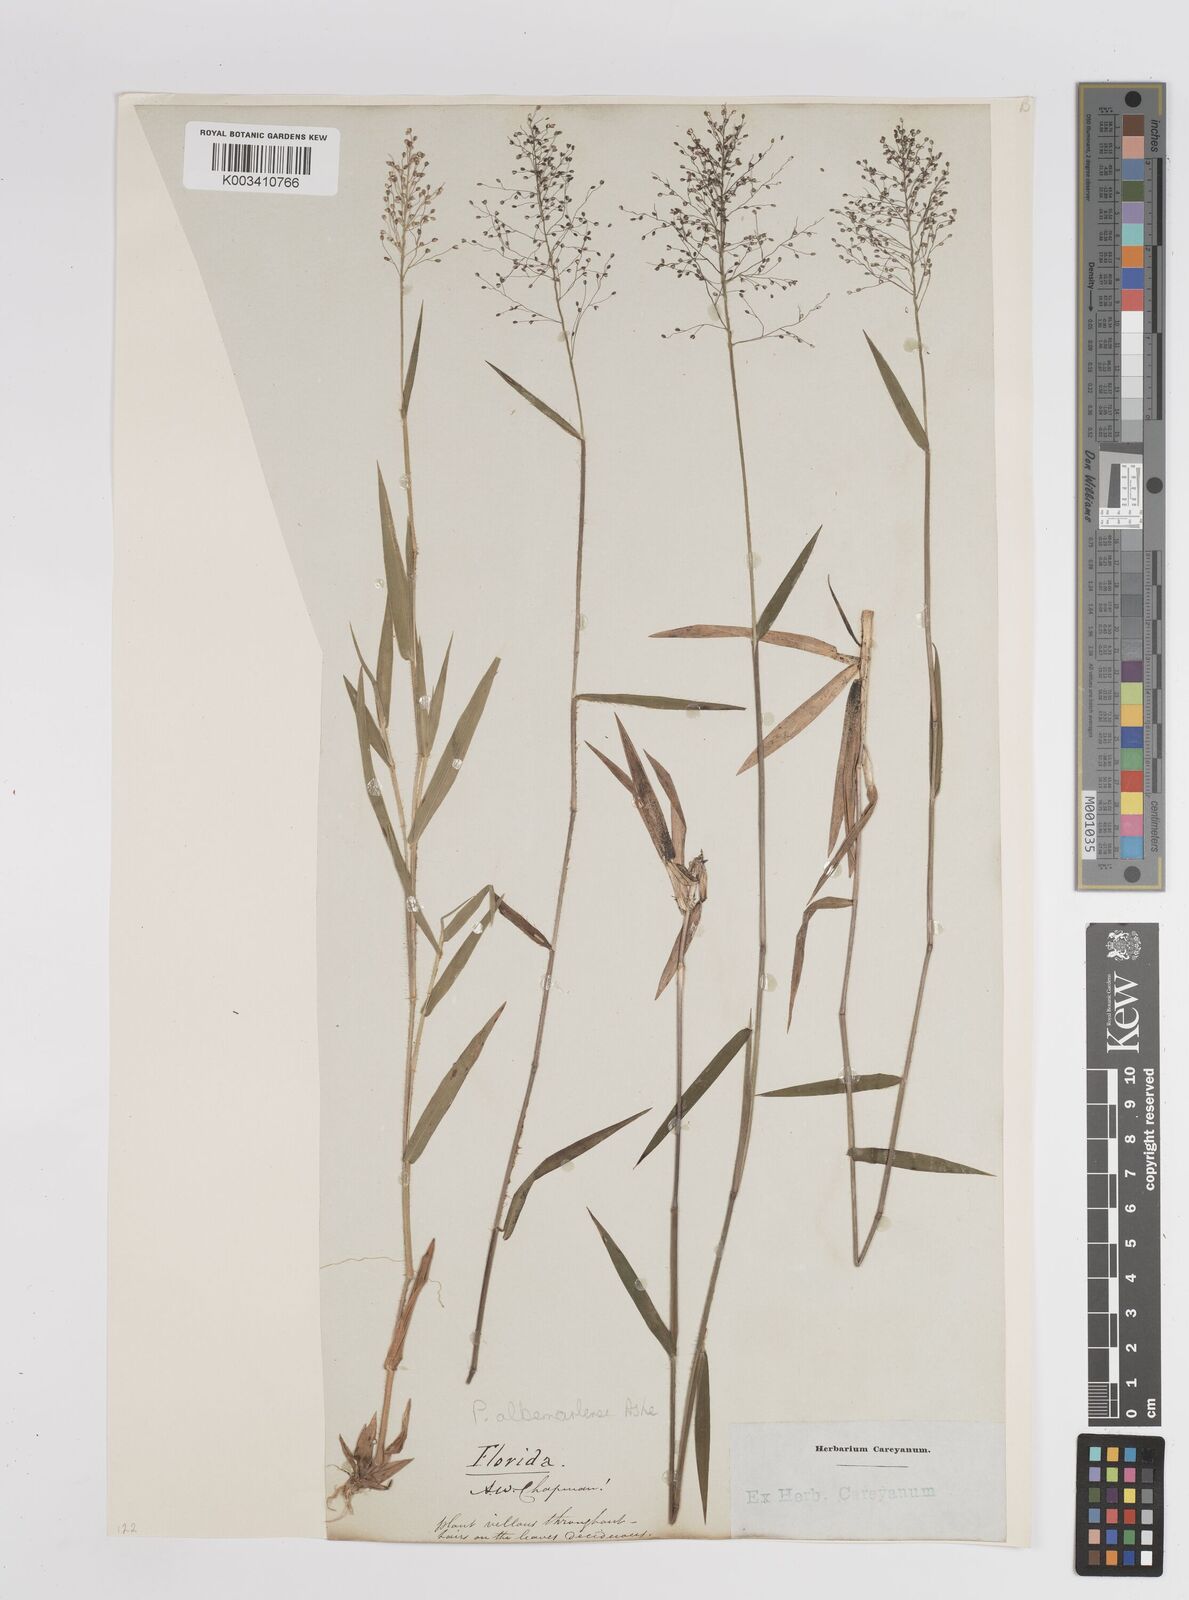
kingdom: Plantae
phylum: Tracheophyta
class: Liliopsida
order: Poales
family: Poaceae
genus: Dichanthelium
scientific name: Dichanthelium meridionale
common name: Mat panicgrass
